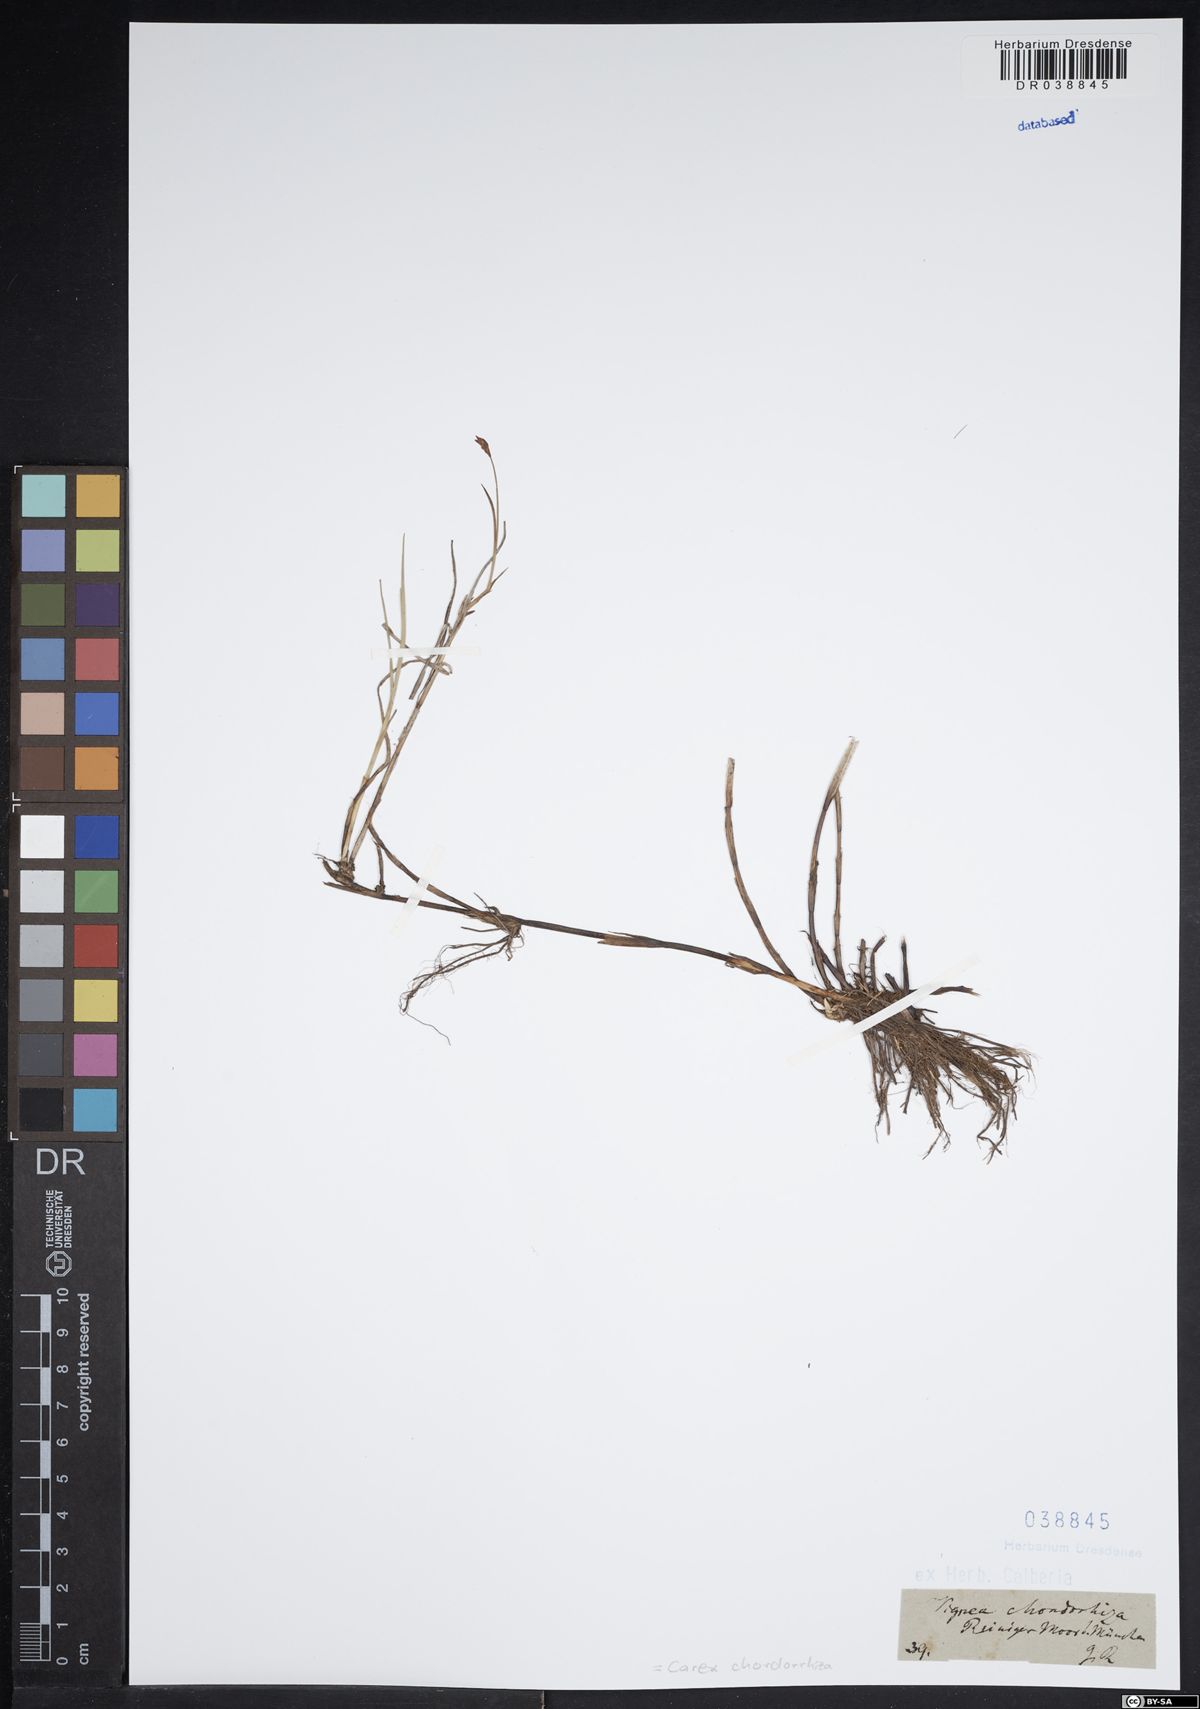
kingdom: Plantae
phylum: Tracheophyta
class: Liliopsida
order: Poales
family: Cyperaceae
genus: Carex
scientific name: Carex chordorrhiza
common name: String sedge
